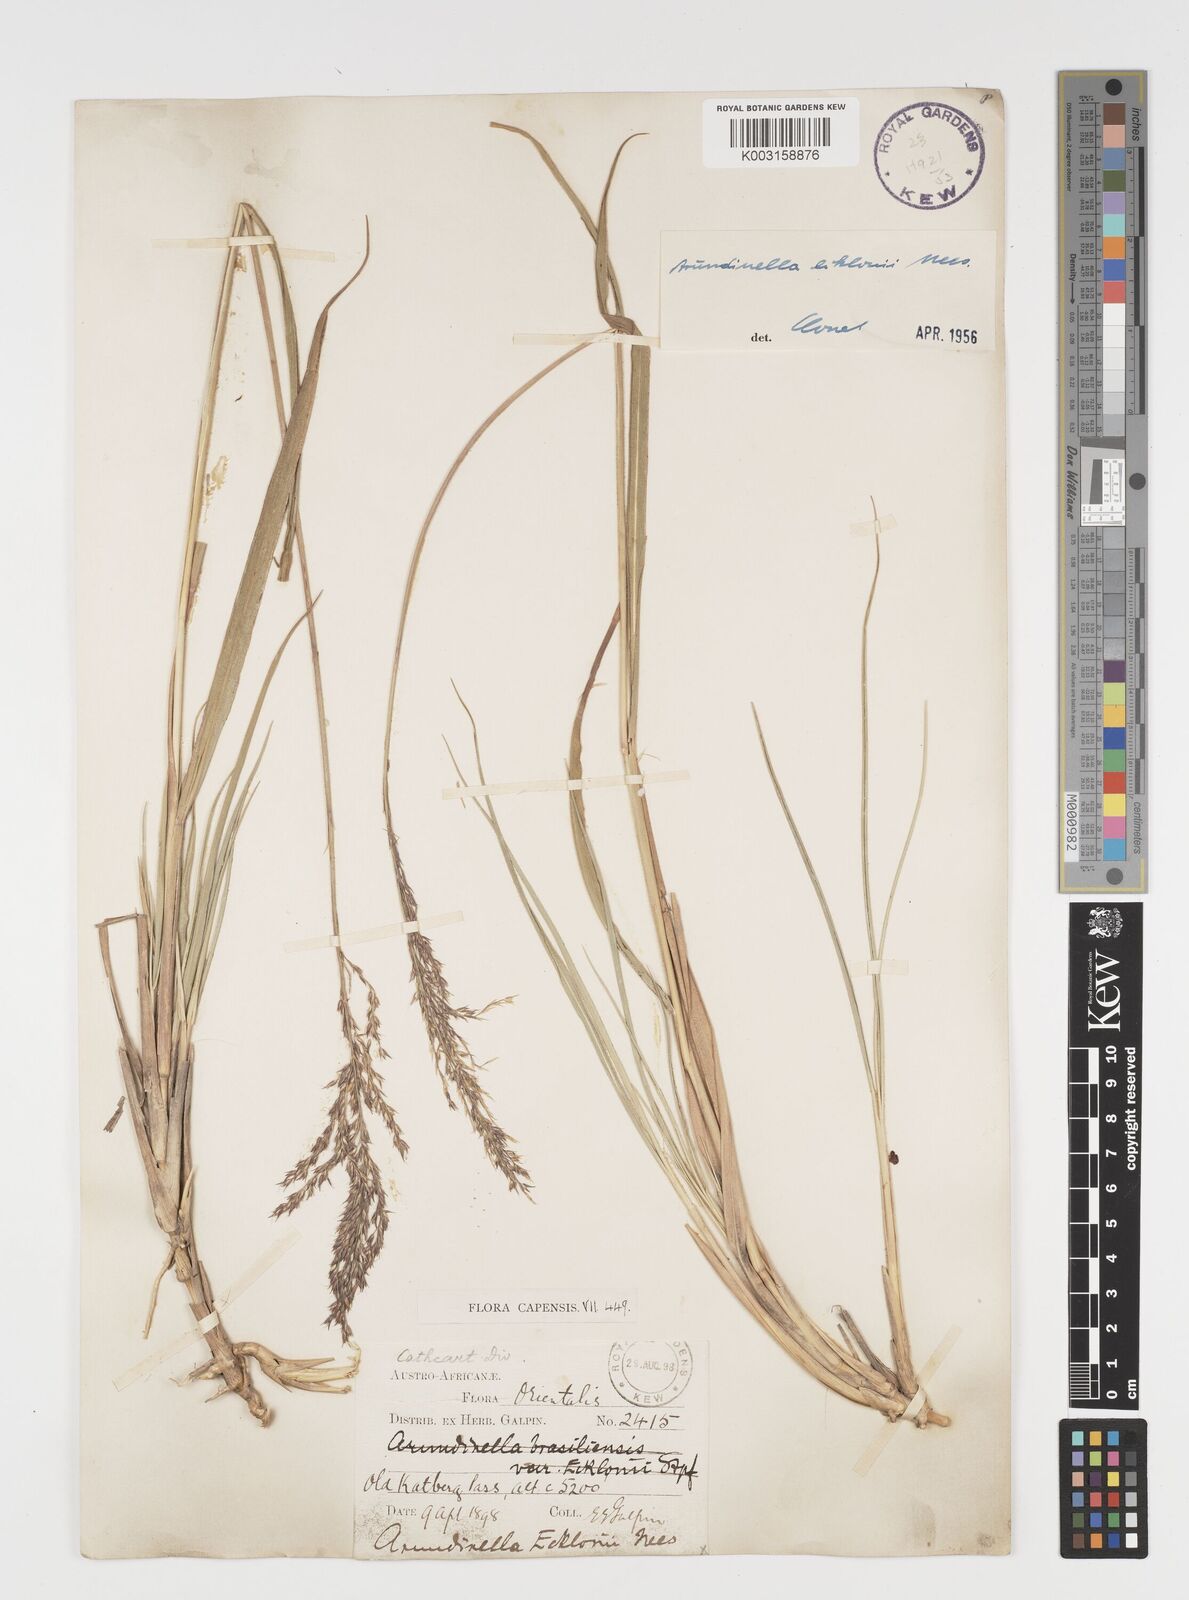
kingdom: Plantae
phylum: Tracheophyta
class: Liliopsida
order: Poales
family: Poaceae
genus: Arundinella
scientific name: Arundinella nepalensis
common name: Reed grass
